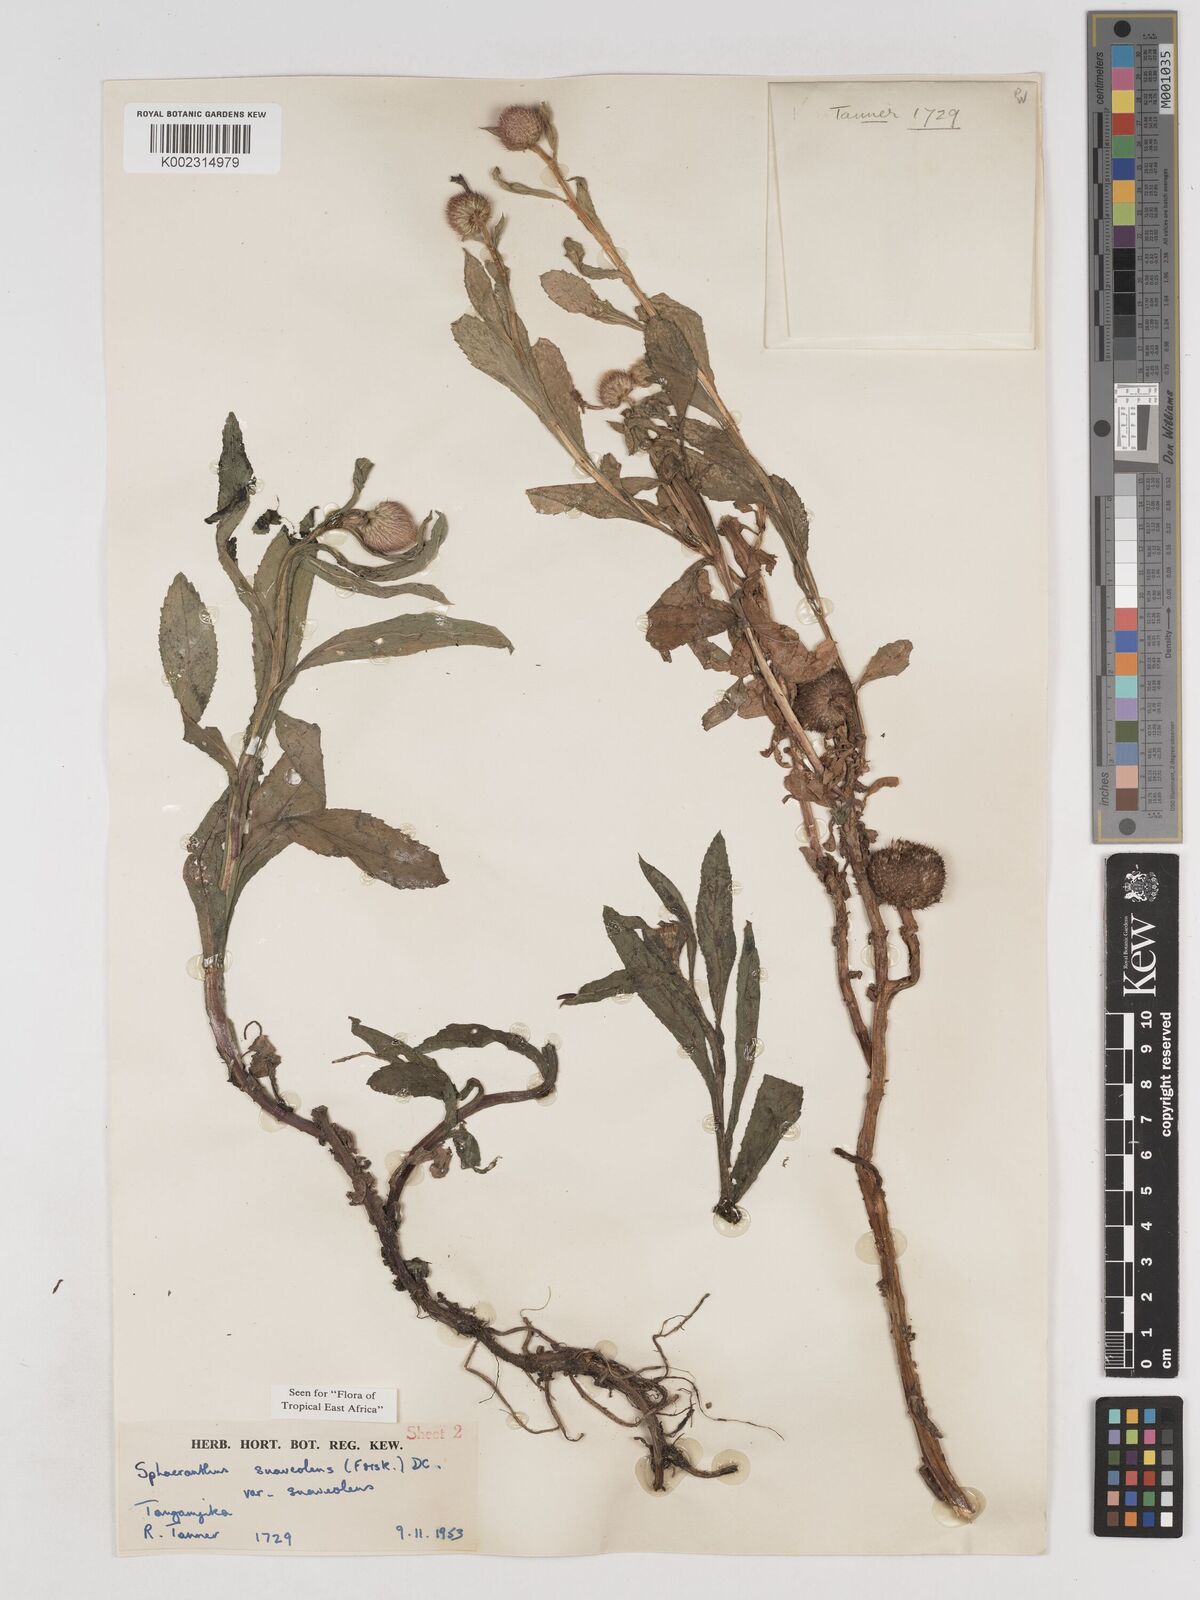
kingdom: Plantae
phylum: Tracheophyta
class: Magnoliopsida
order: Asterales
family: Asteraceae
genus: Sphaeranthus
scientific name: Sphaeranthus suaveolens
